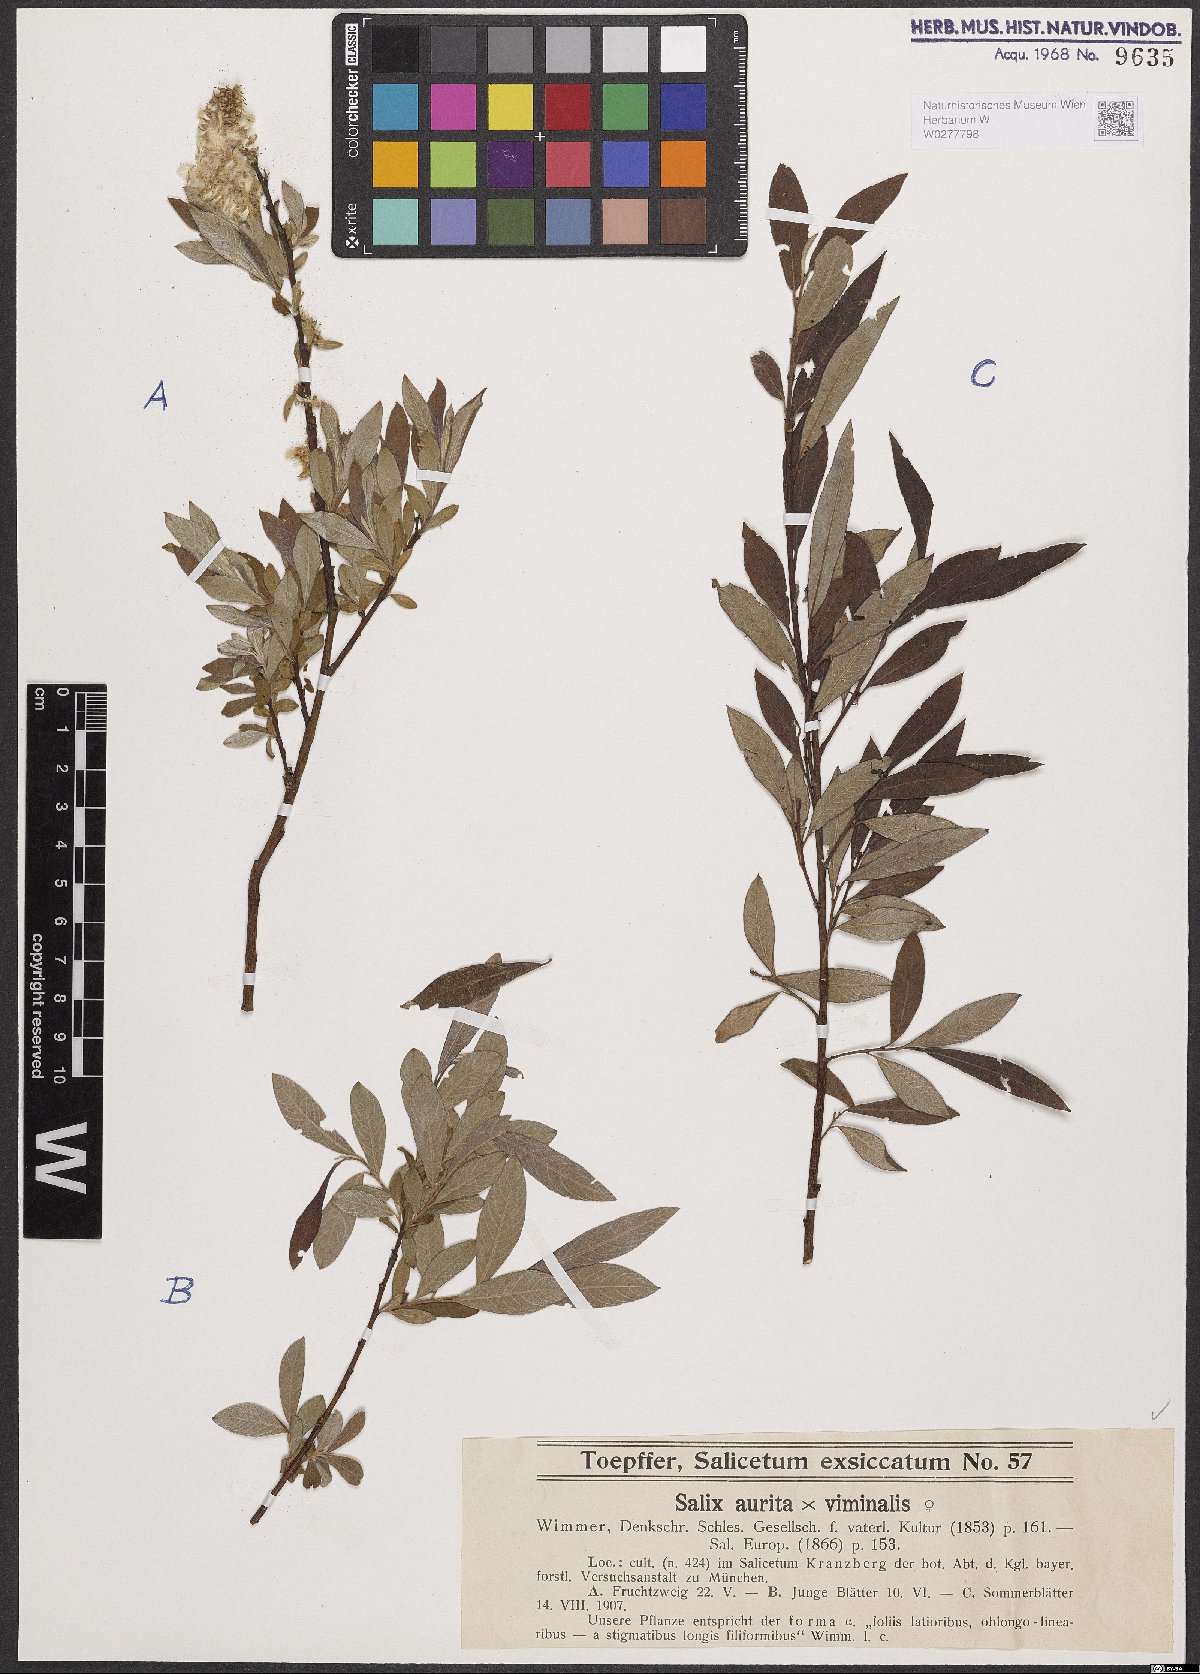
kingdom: Plantae
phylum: Tracheophyta
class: Magnoliopsida
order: Malpighiales
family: Salicaceae
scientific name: Salicaceae
